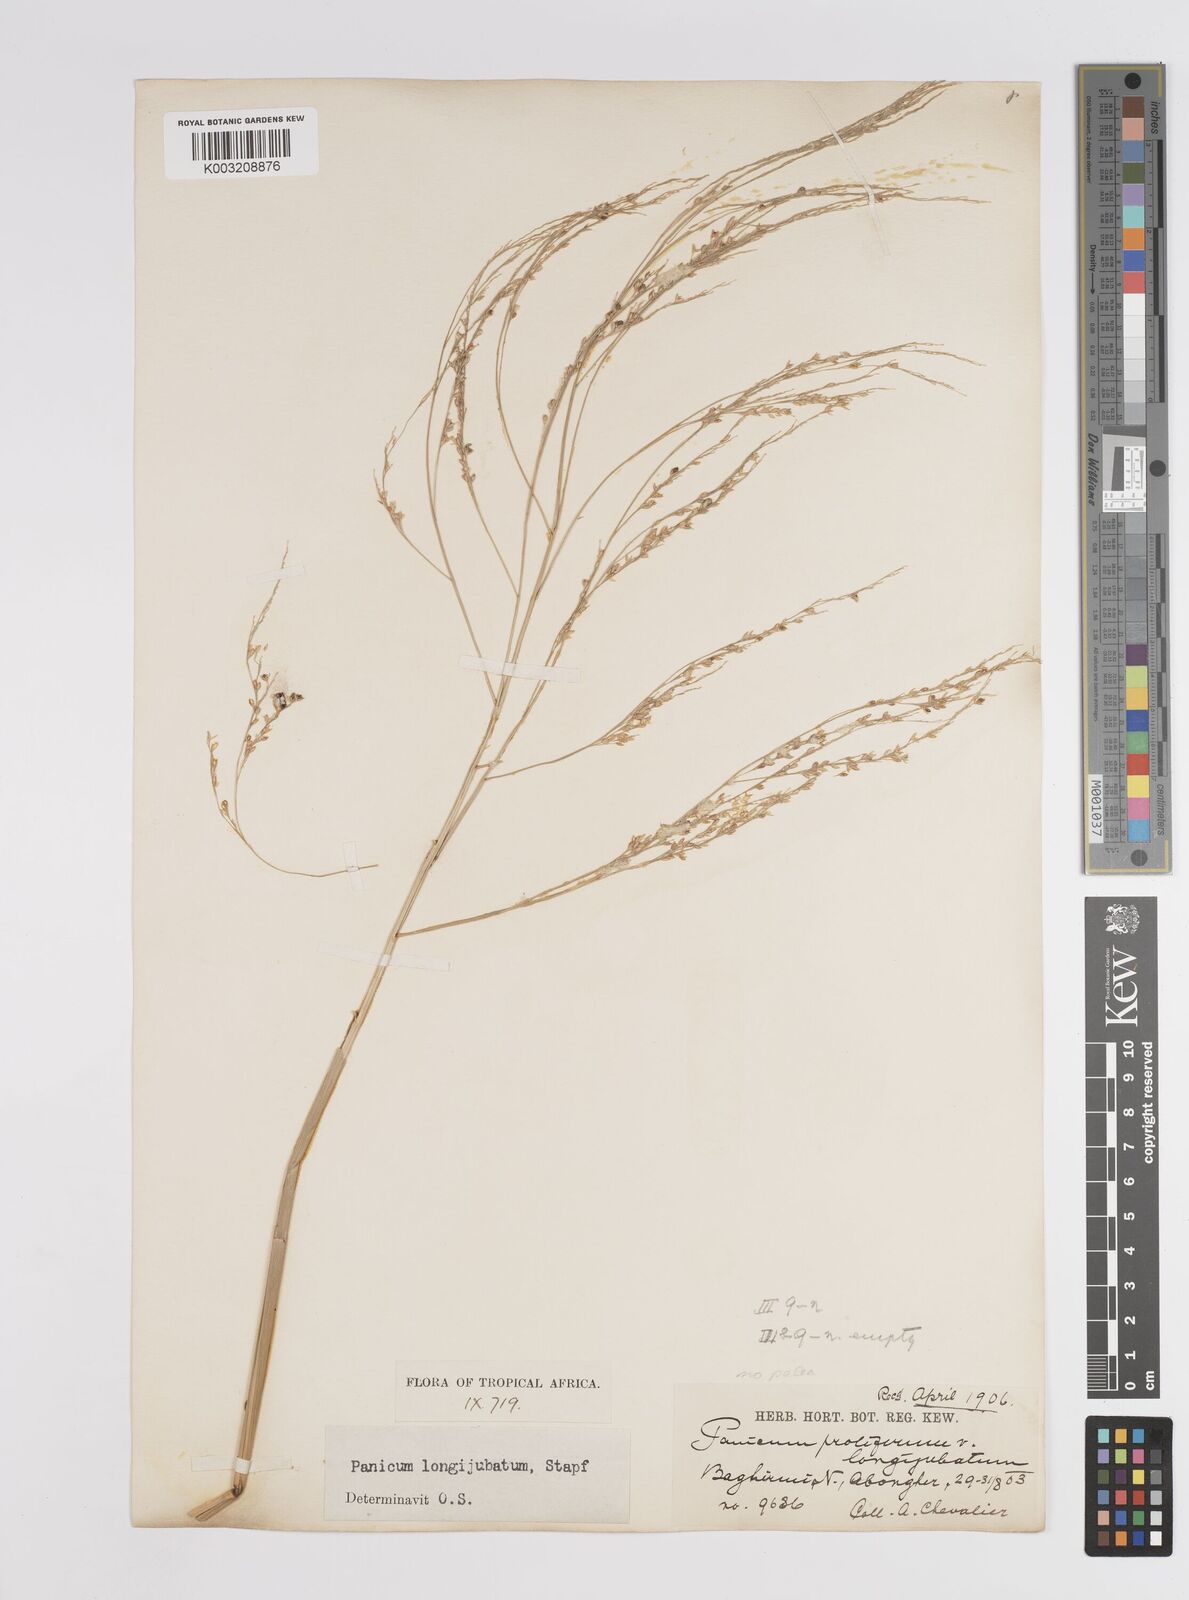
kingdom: Plantae
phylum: Tracheophyta
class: Liliopsida
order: Poales
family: Poaceae
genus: Panicum
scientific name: Panicum subalbidum
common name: Elbow buffalo grass
